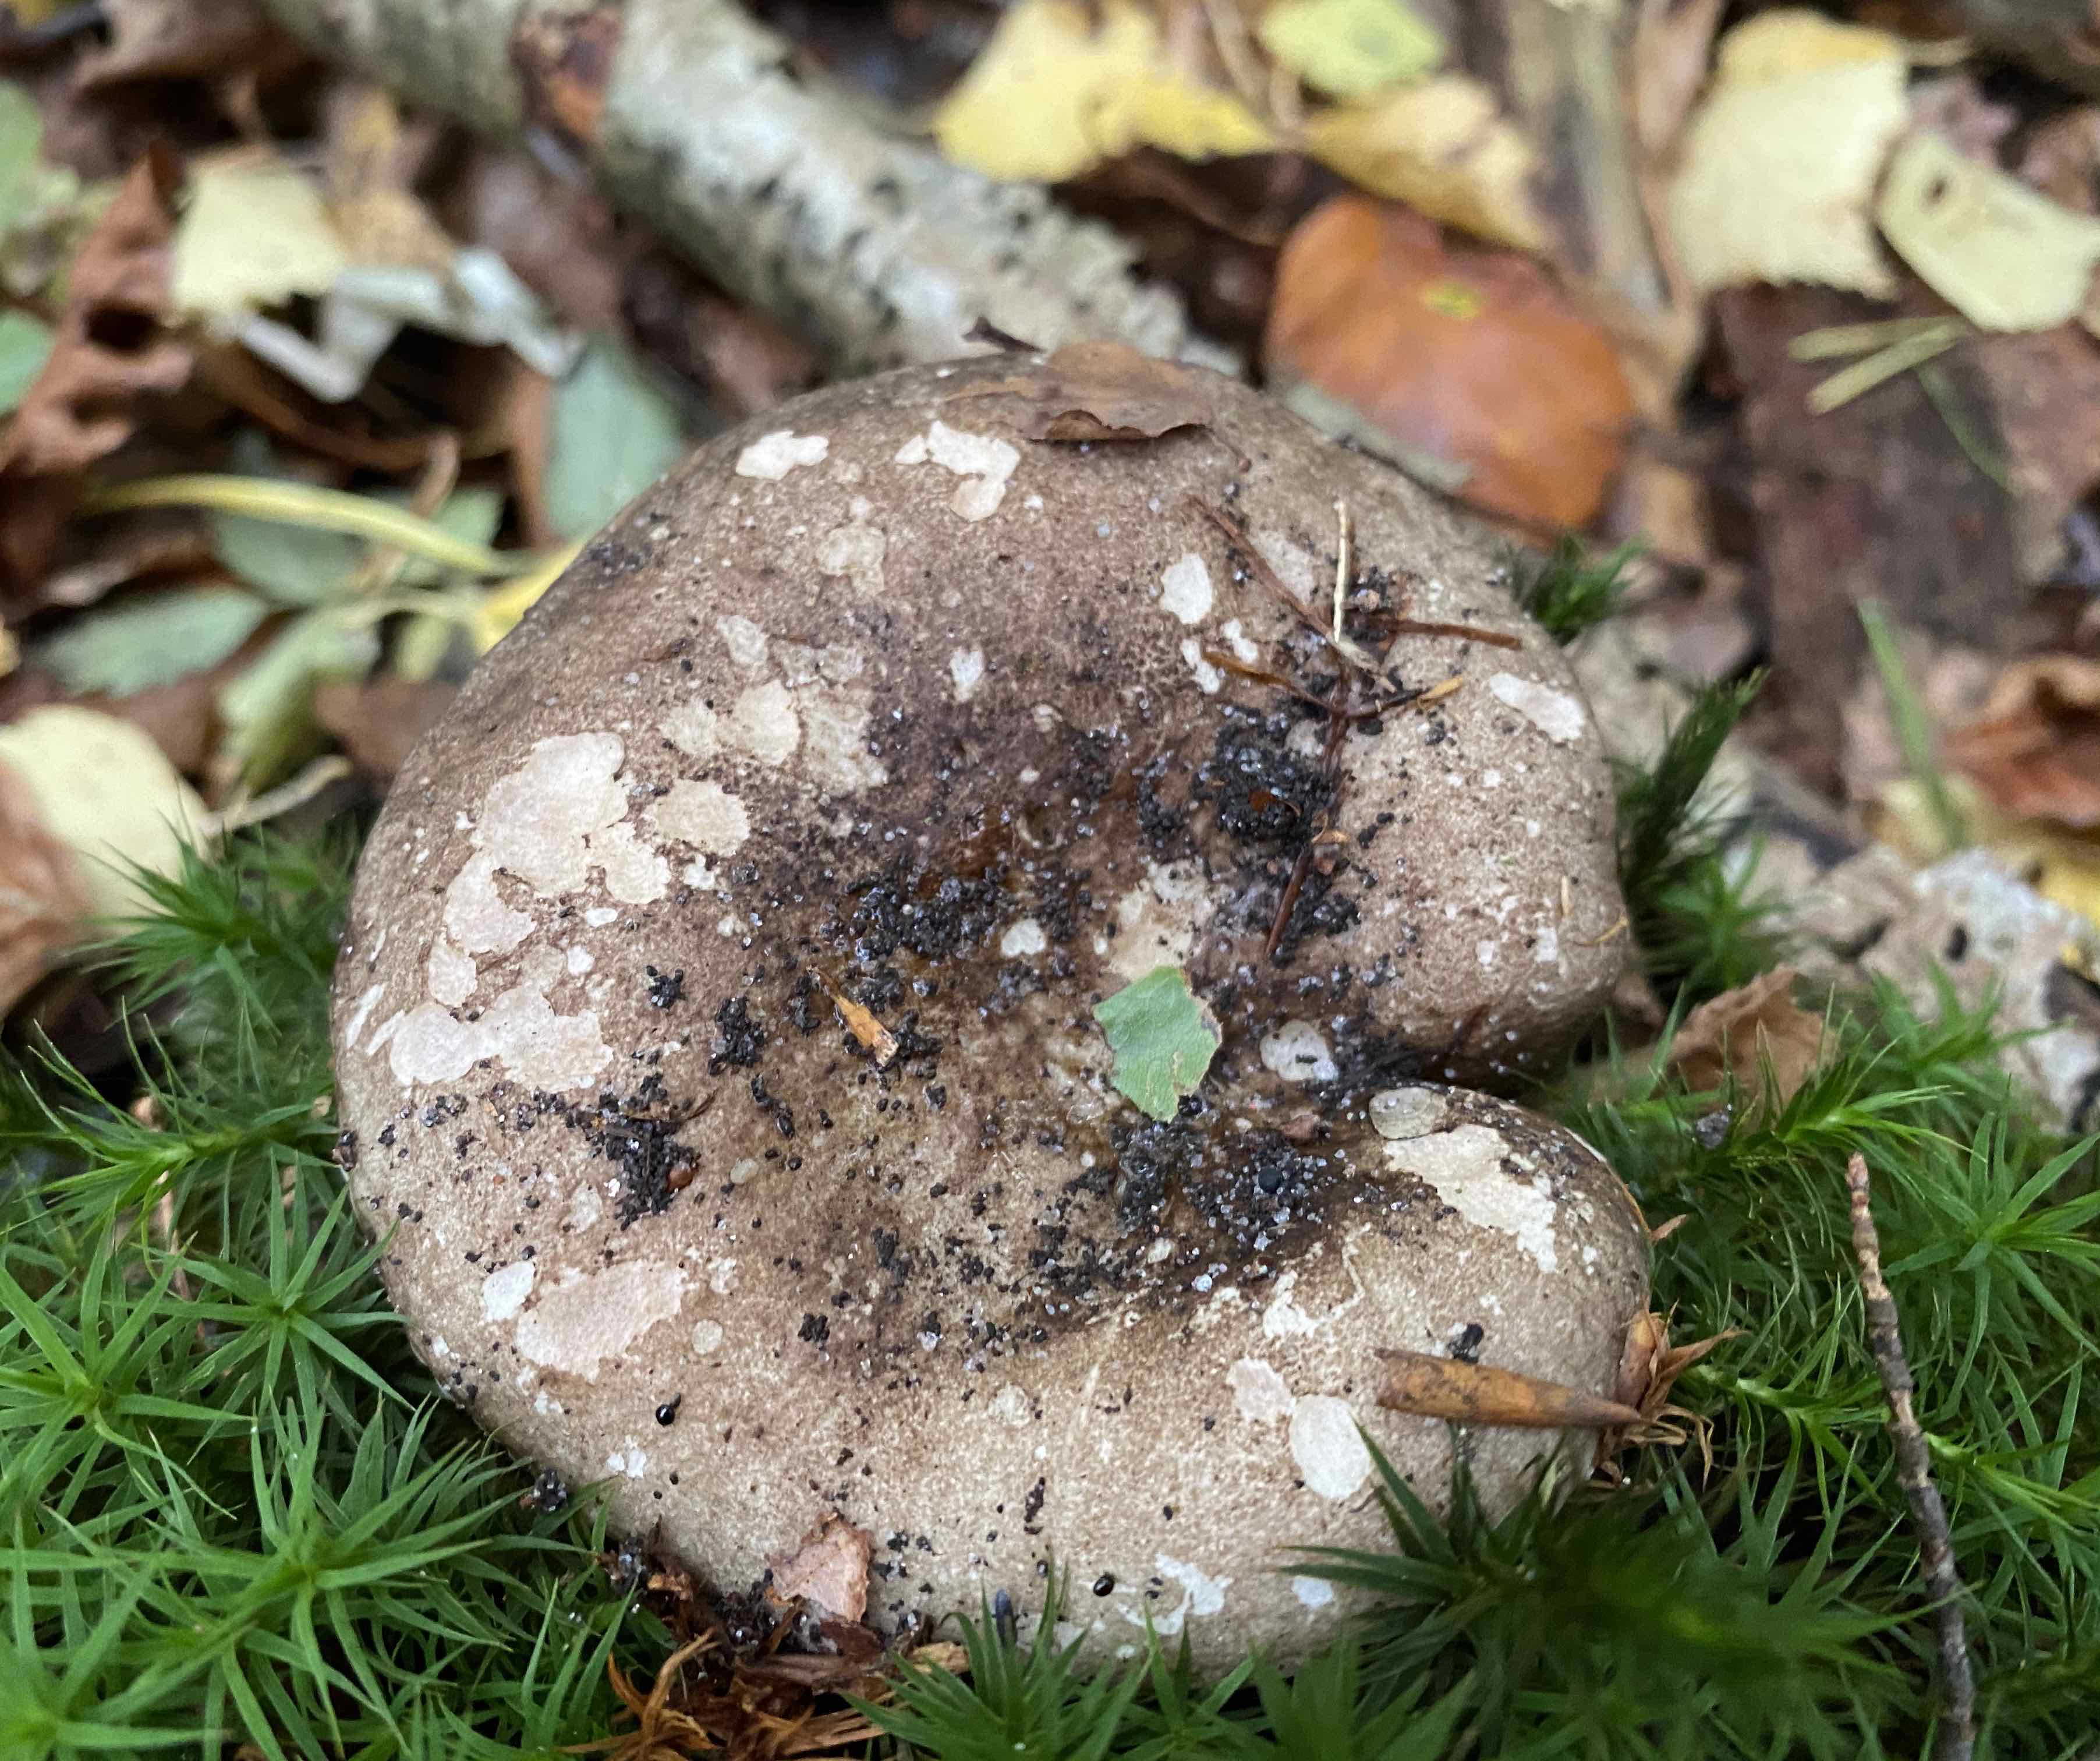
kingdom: Fungi
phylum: Basidiomycota
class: Agaricomycetes
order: Russulales
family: Russulaceae
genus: Russula
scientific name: Russula adusta
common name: sværtende skørhat
